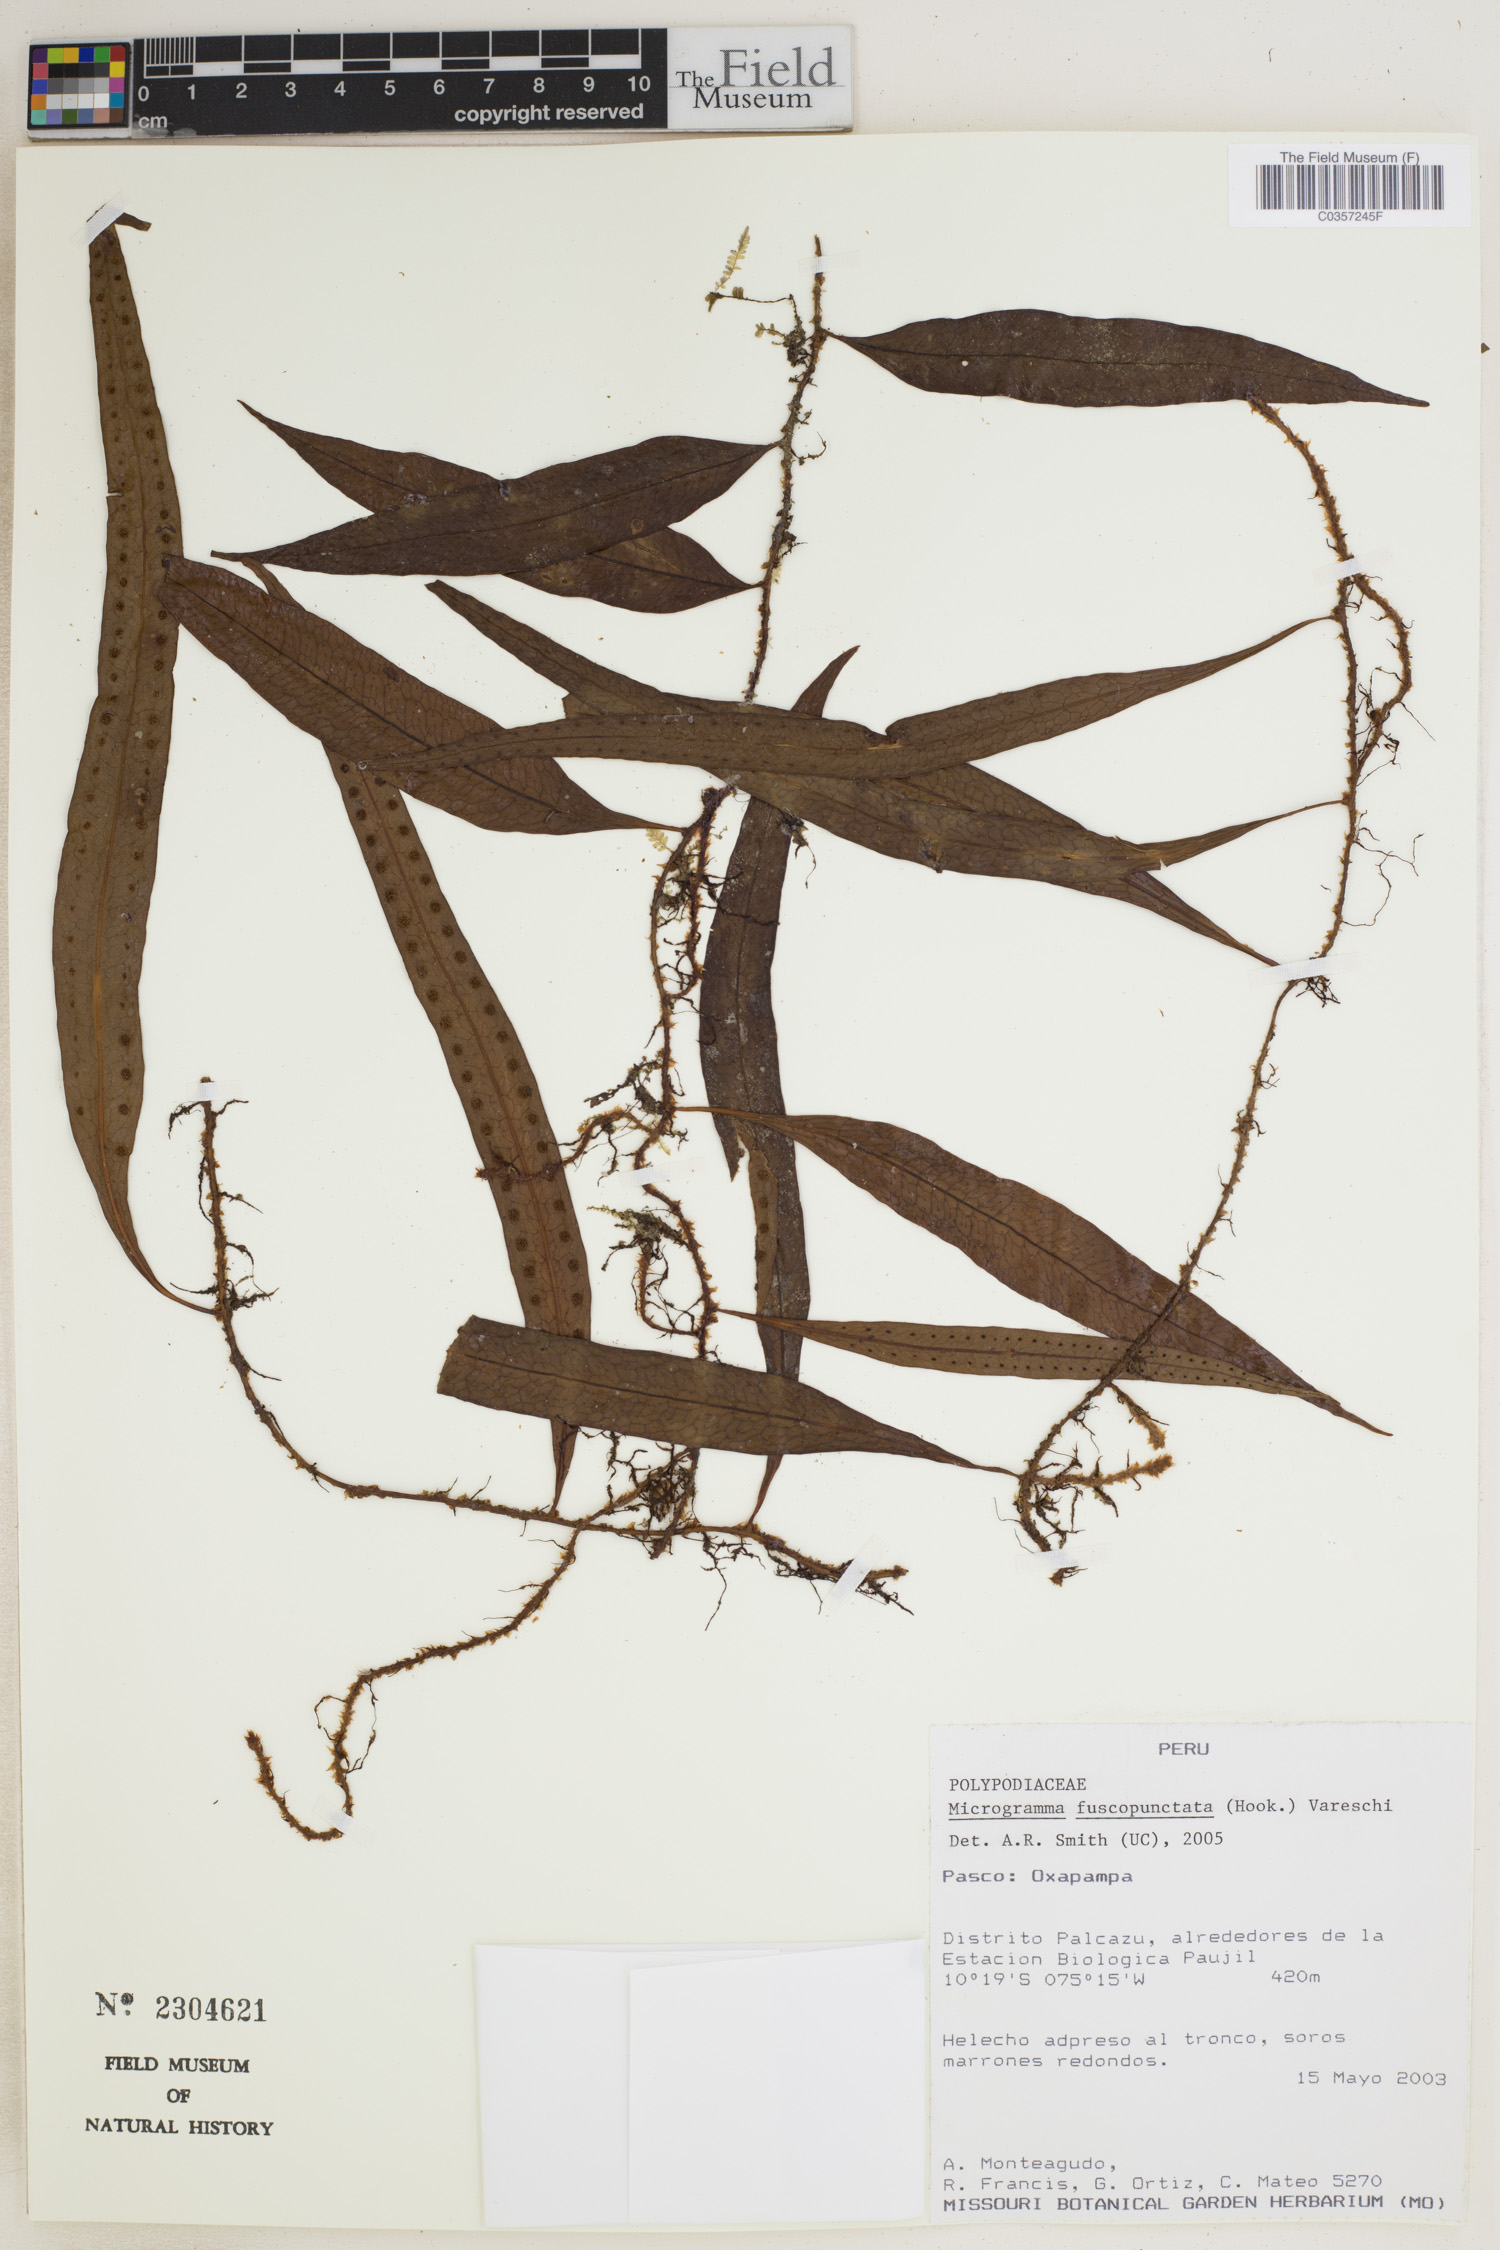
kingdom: Plantae
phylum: Tracheophyta
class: Polypodiopsida
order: Polypodiales
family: Polypodiaceae
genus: Microgramma
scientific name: Microgramma dictyophylla
